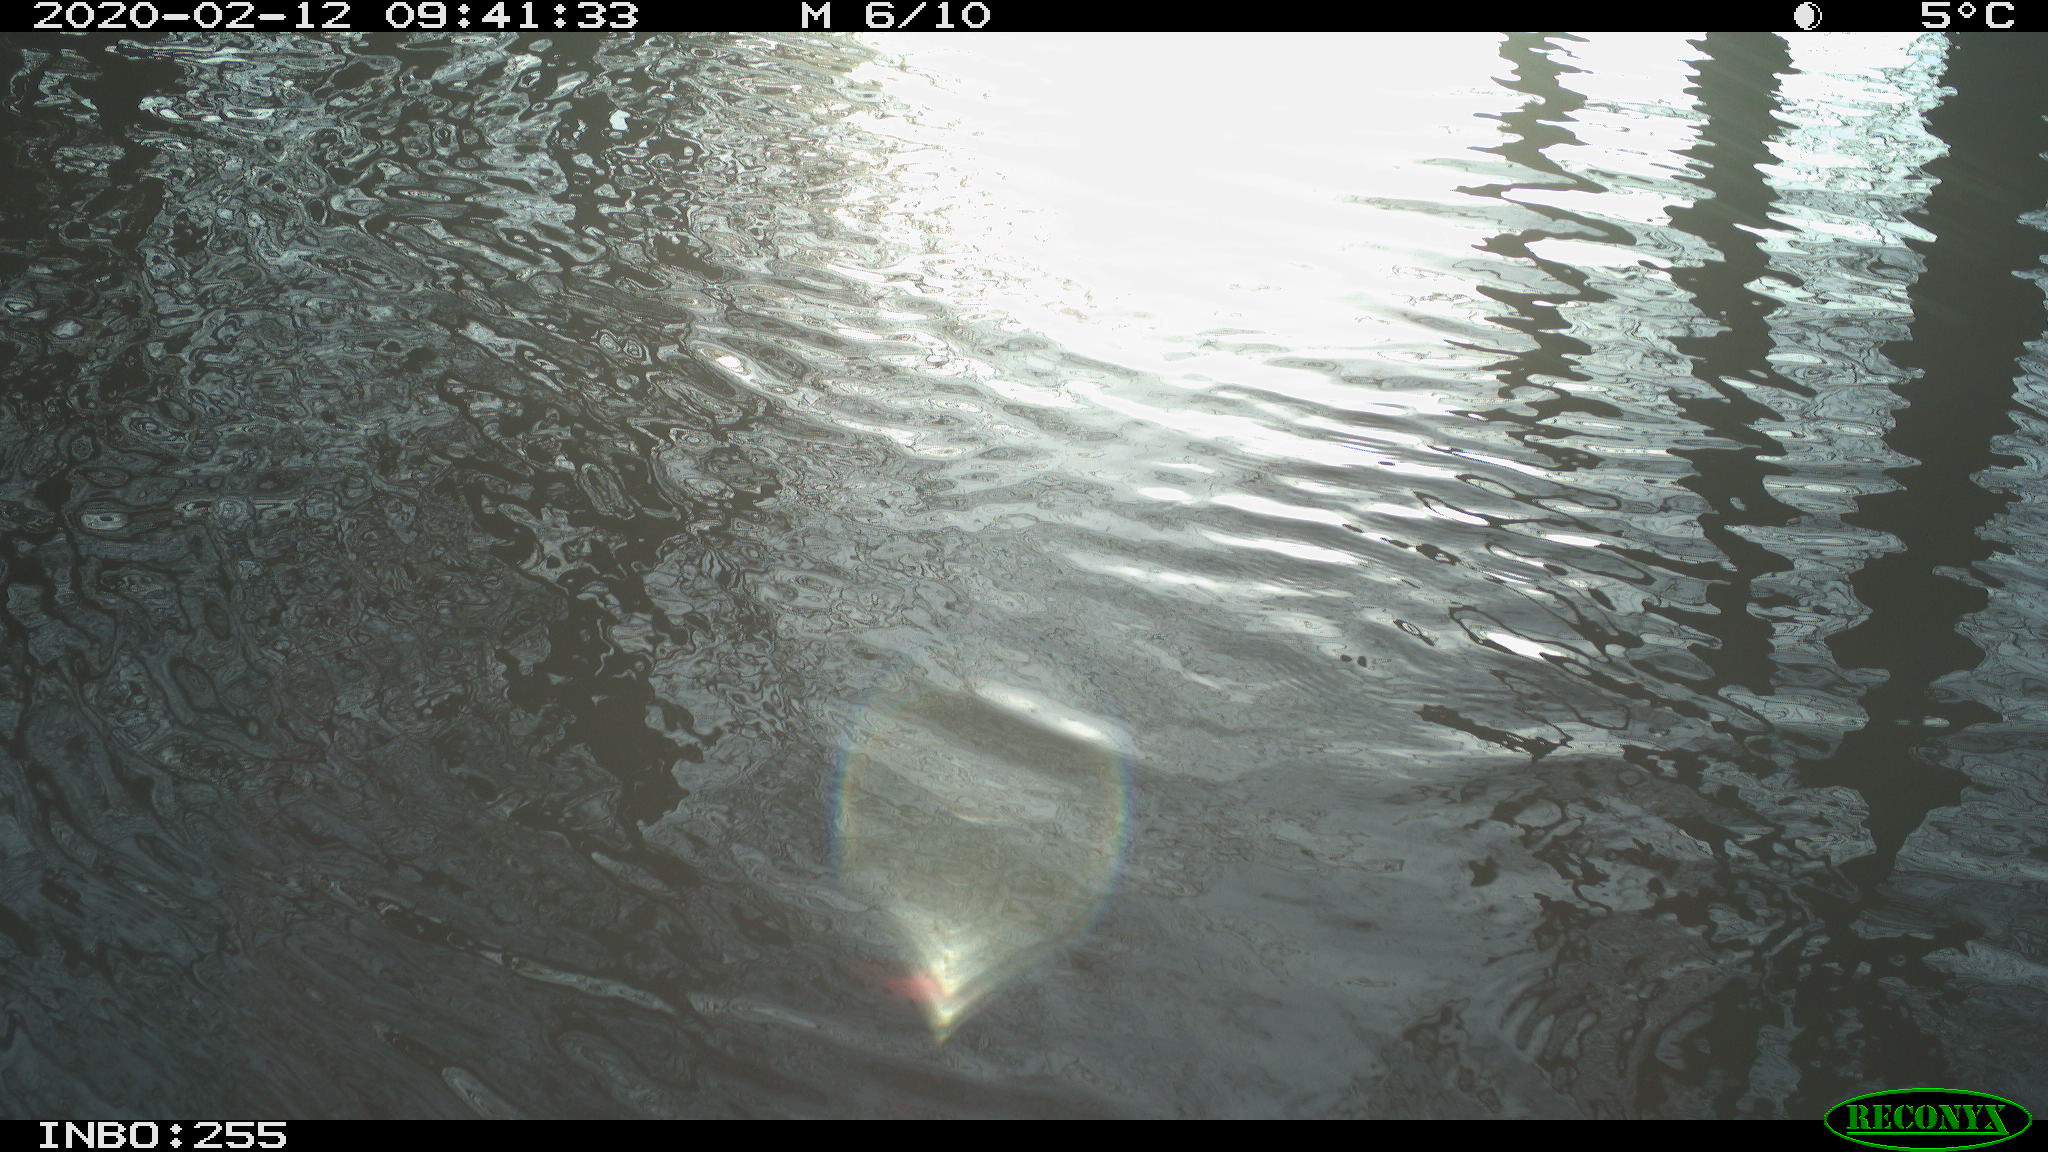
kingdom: Animalia
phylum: Chordata
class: Aves
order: Gruiformes
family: Rallidae
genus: Fulica
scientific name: Fulica atra
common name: Eurasian coot
